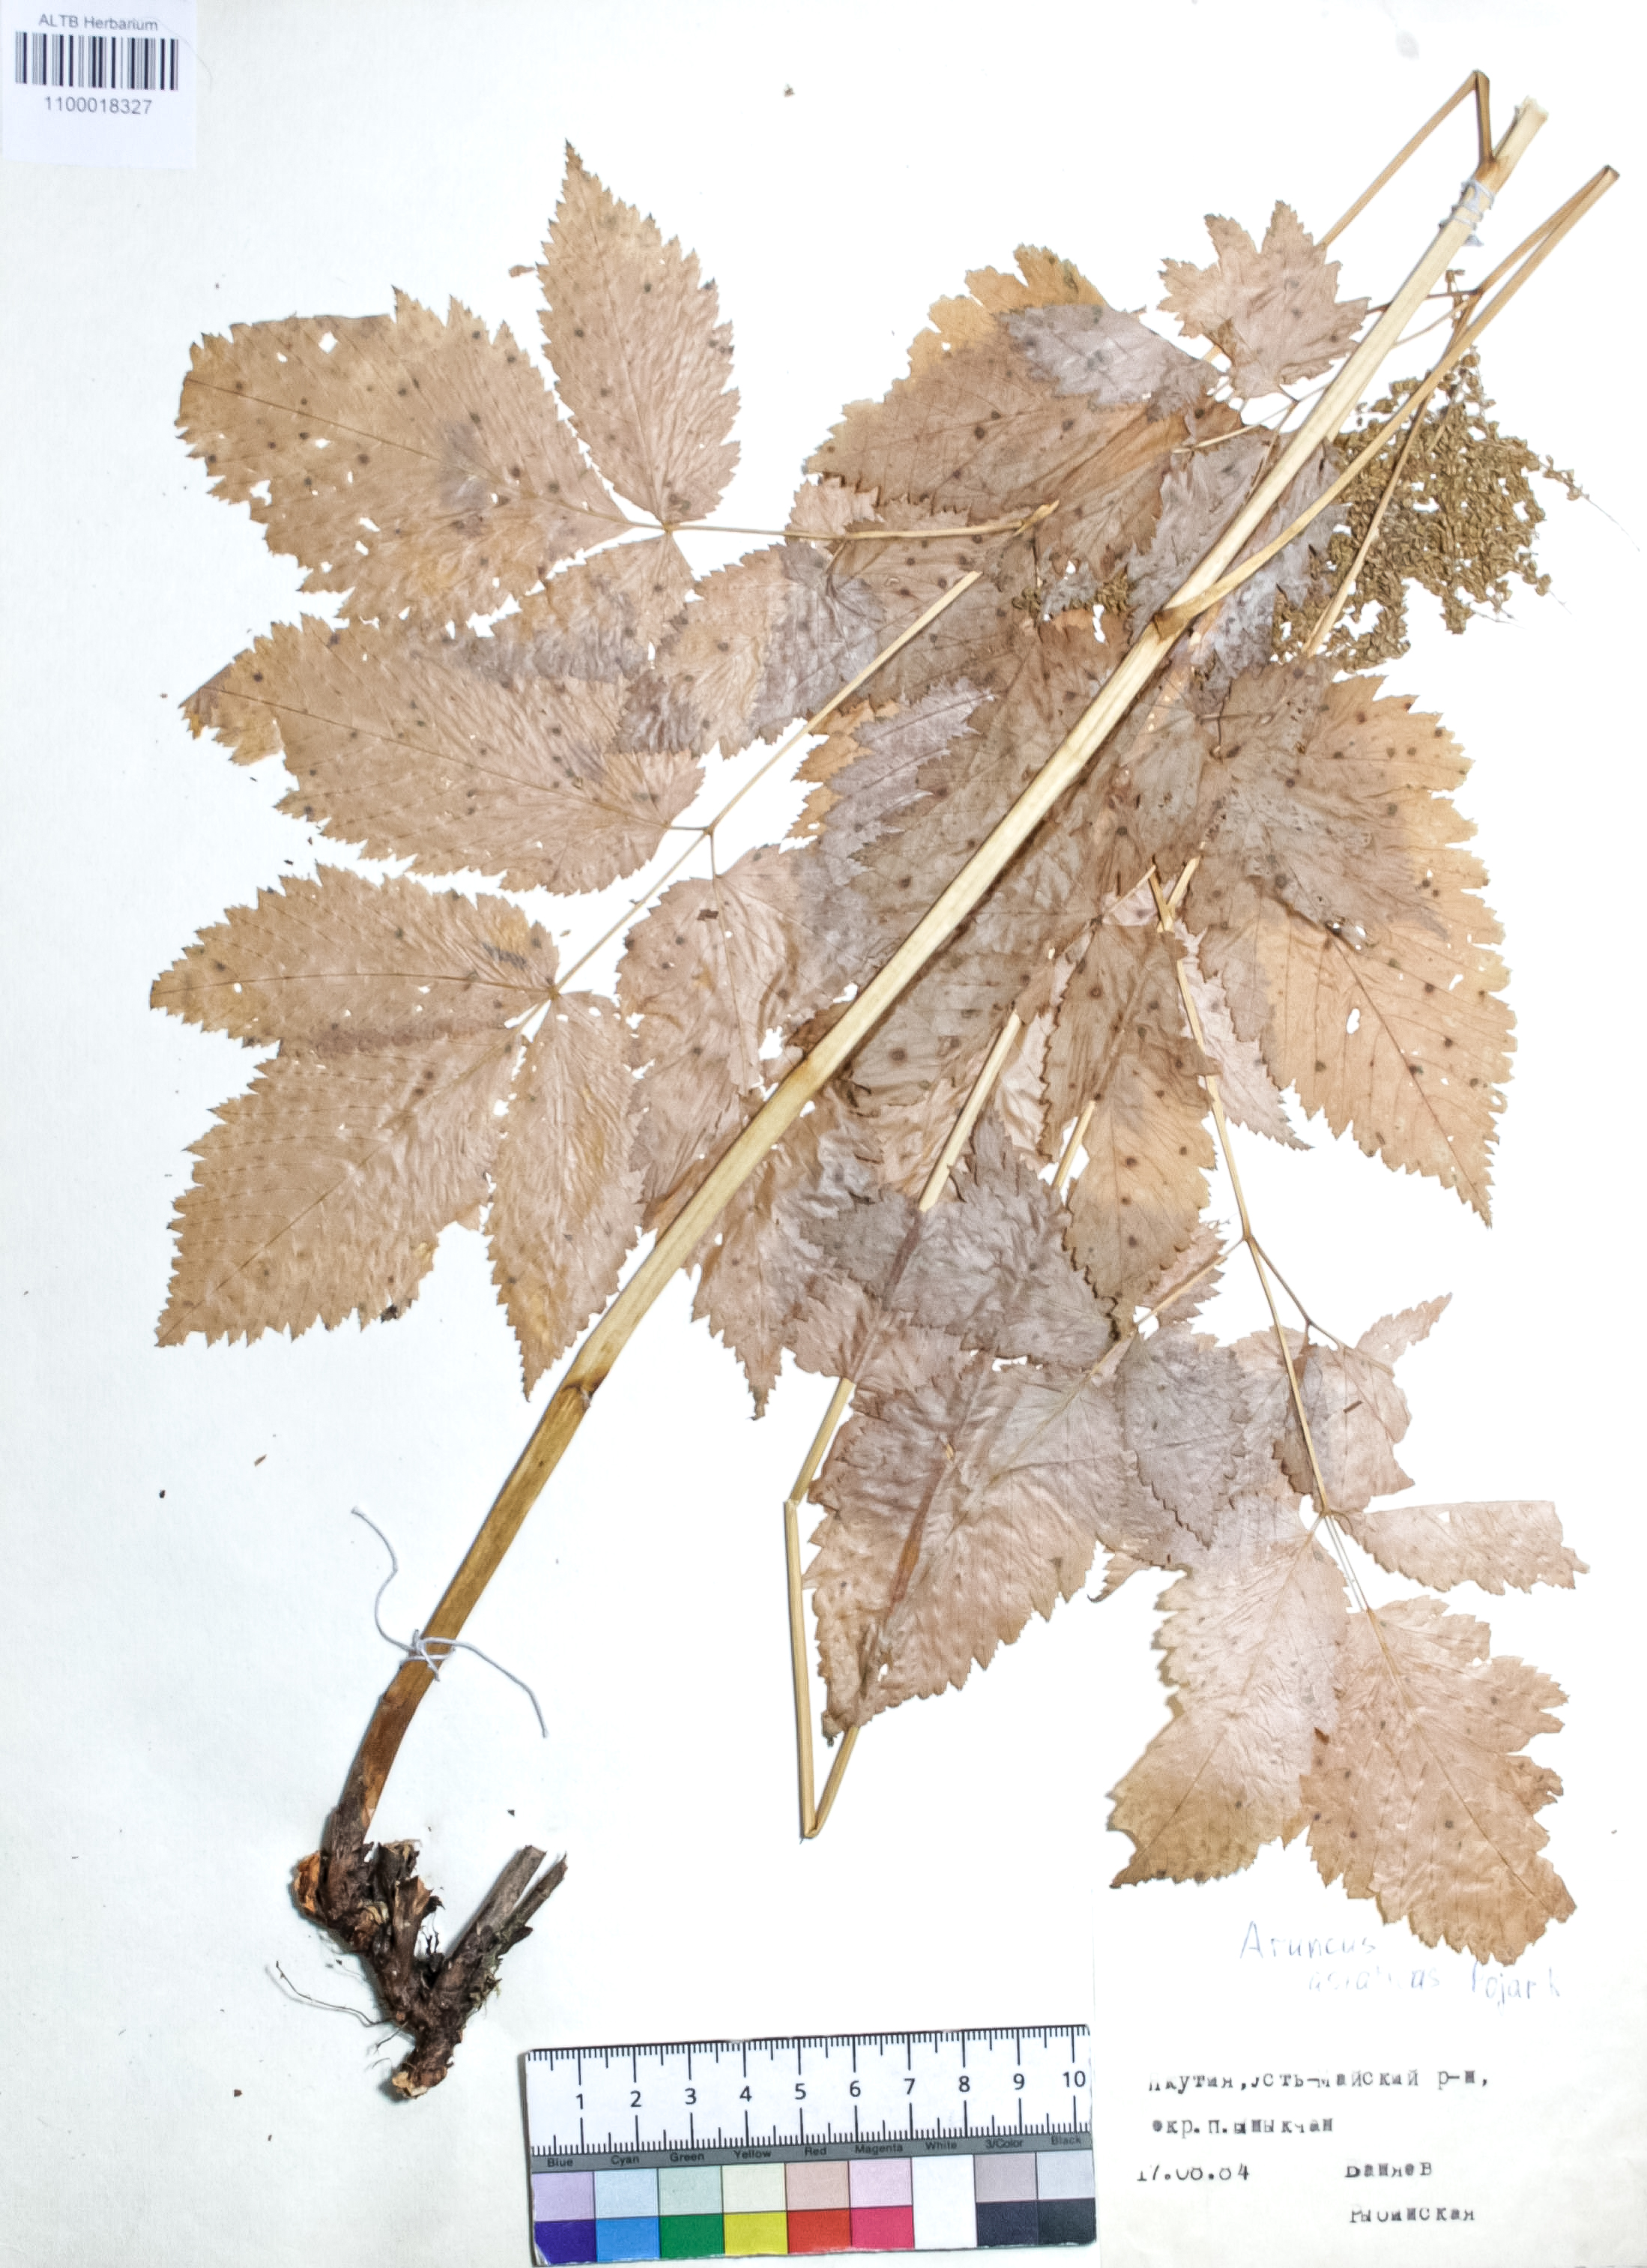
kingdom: Plantae
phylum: Tracheophyta
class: Magnoliopsida
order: Rosales
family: Rosaceae
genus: Aruncus
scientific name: Aruncus sylvester
